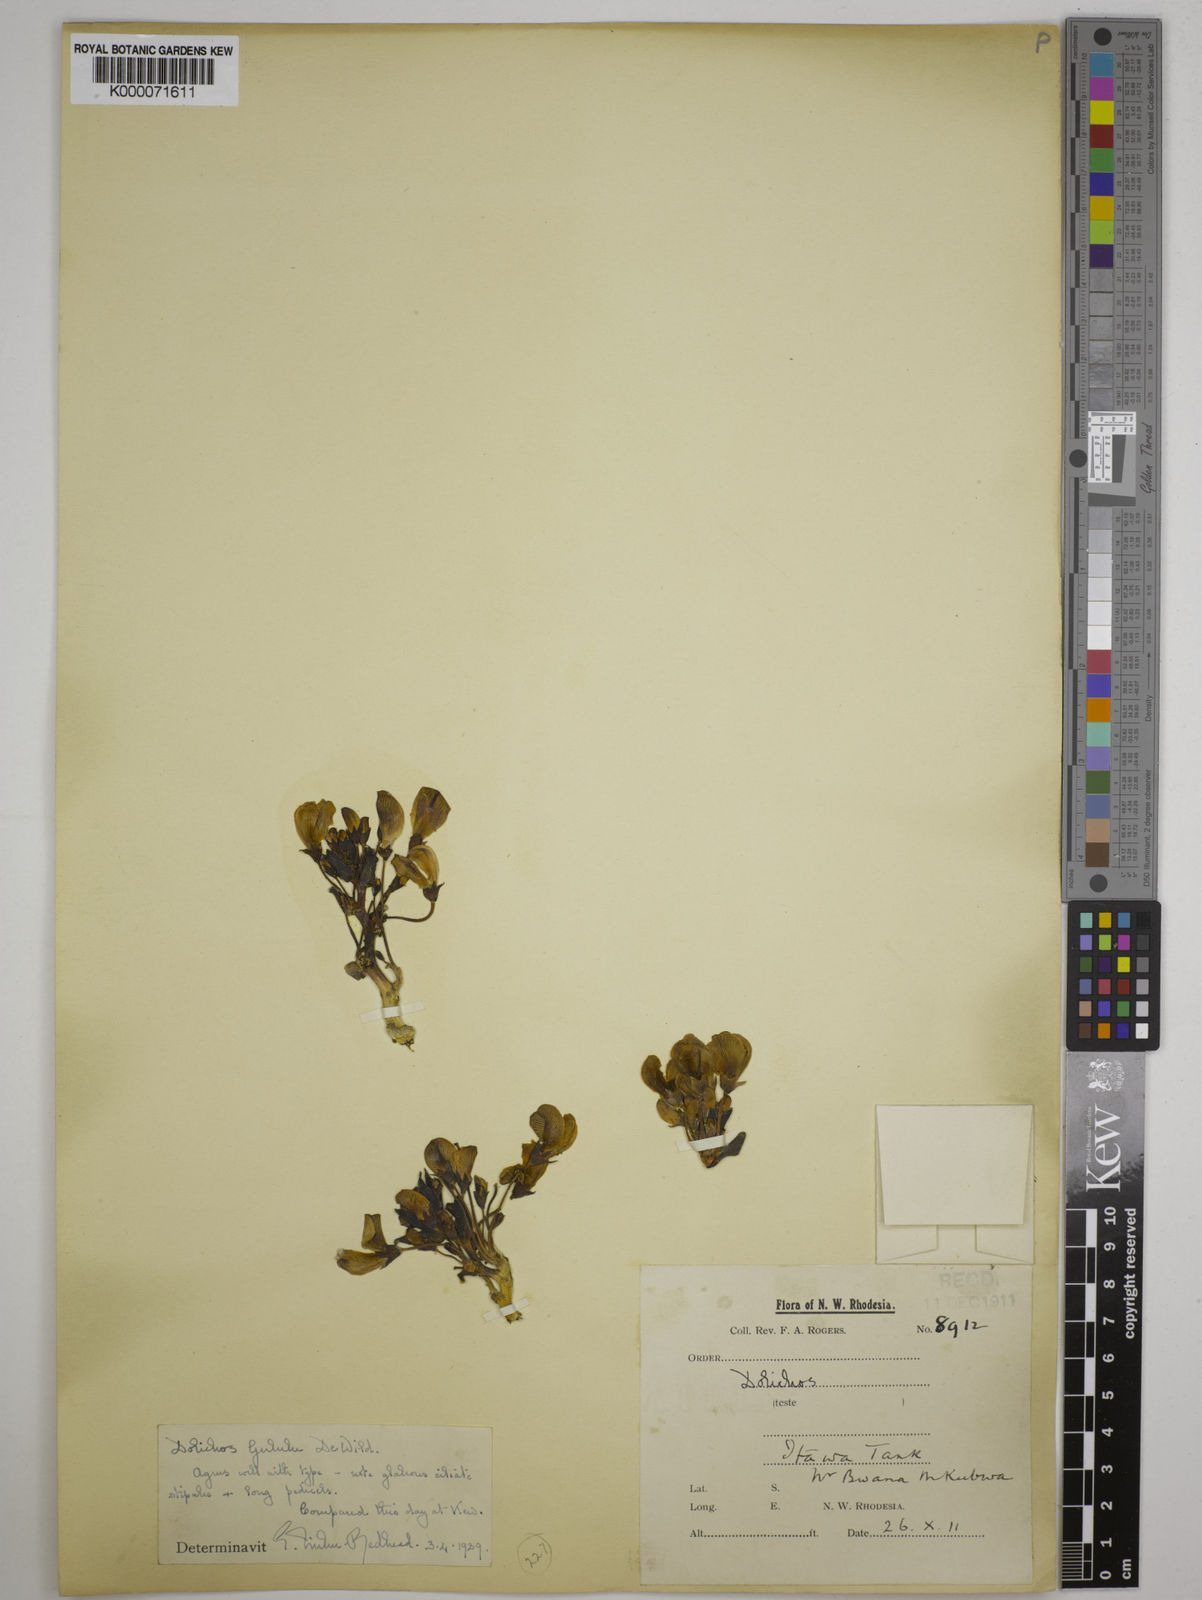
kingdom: Plantae
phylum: Tracheophyta
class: Magnoliopsida
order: Fabales
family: Fabaceae
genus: Dolichos
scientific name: Dolichos gululu
